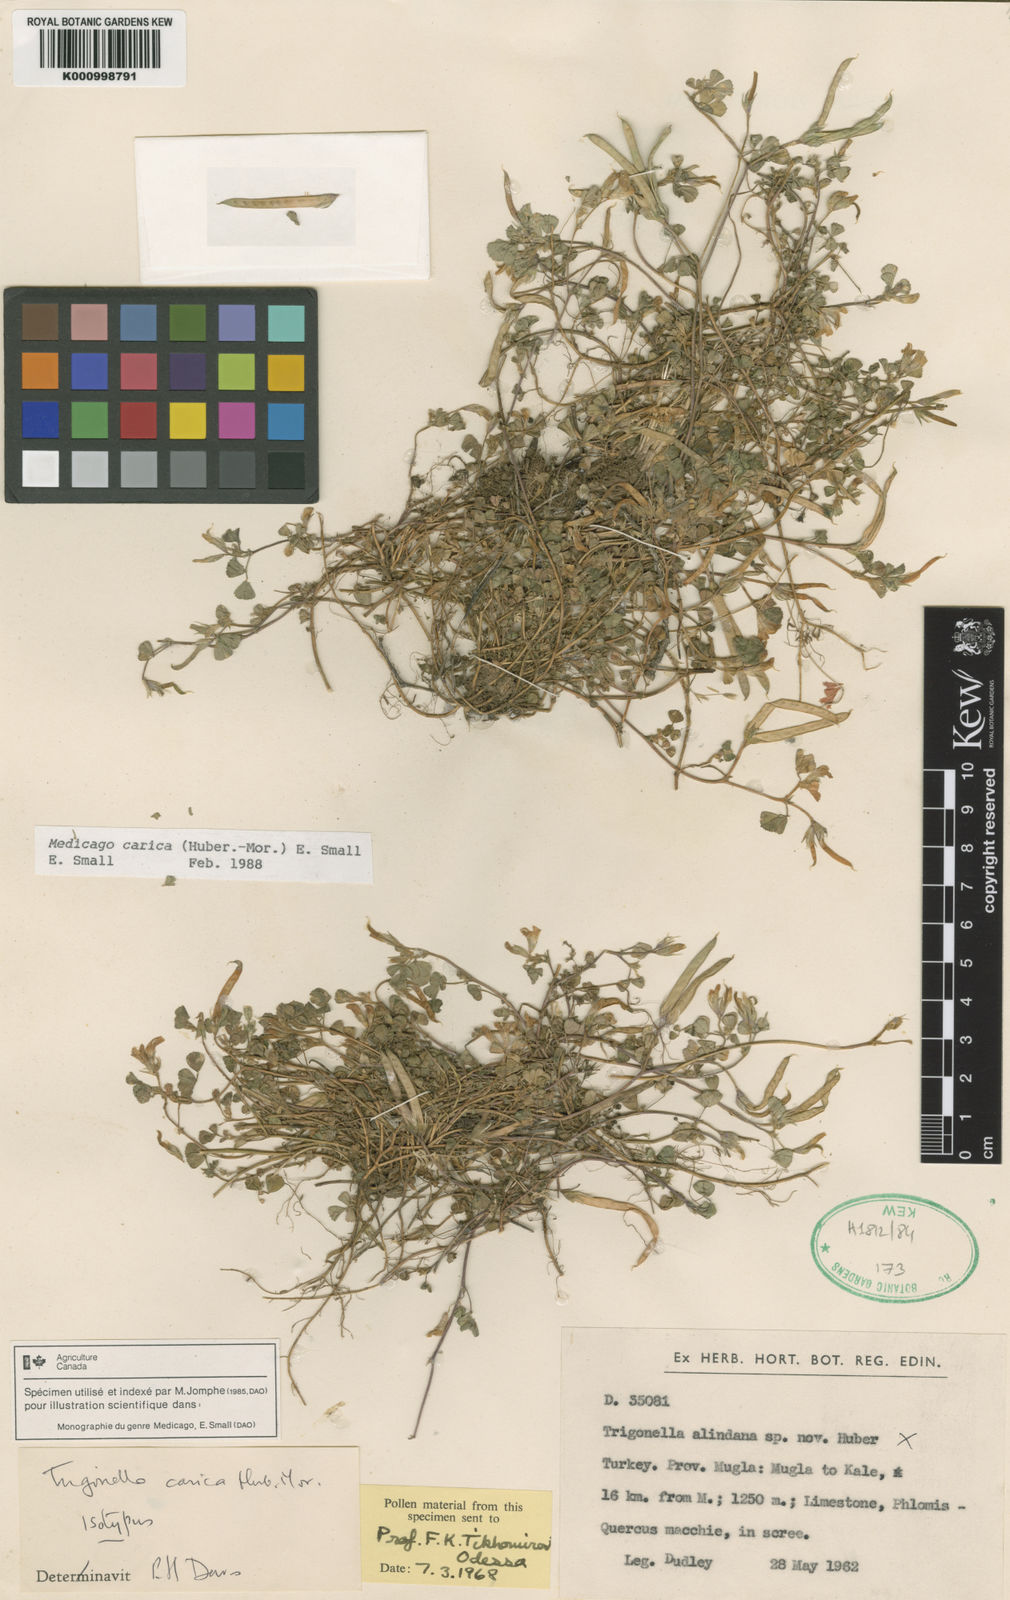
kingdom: Plantae
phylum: Tracheophyta
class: Magnoliopsida
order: Fabales
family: Fabaceae
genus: Medicago
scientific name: Medicago carica
